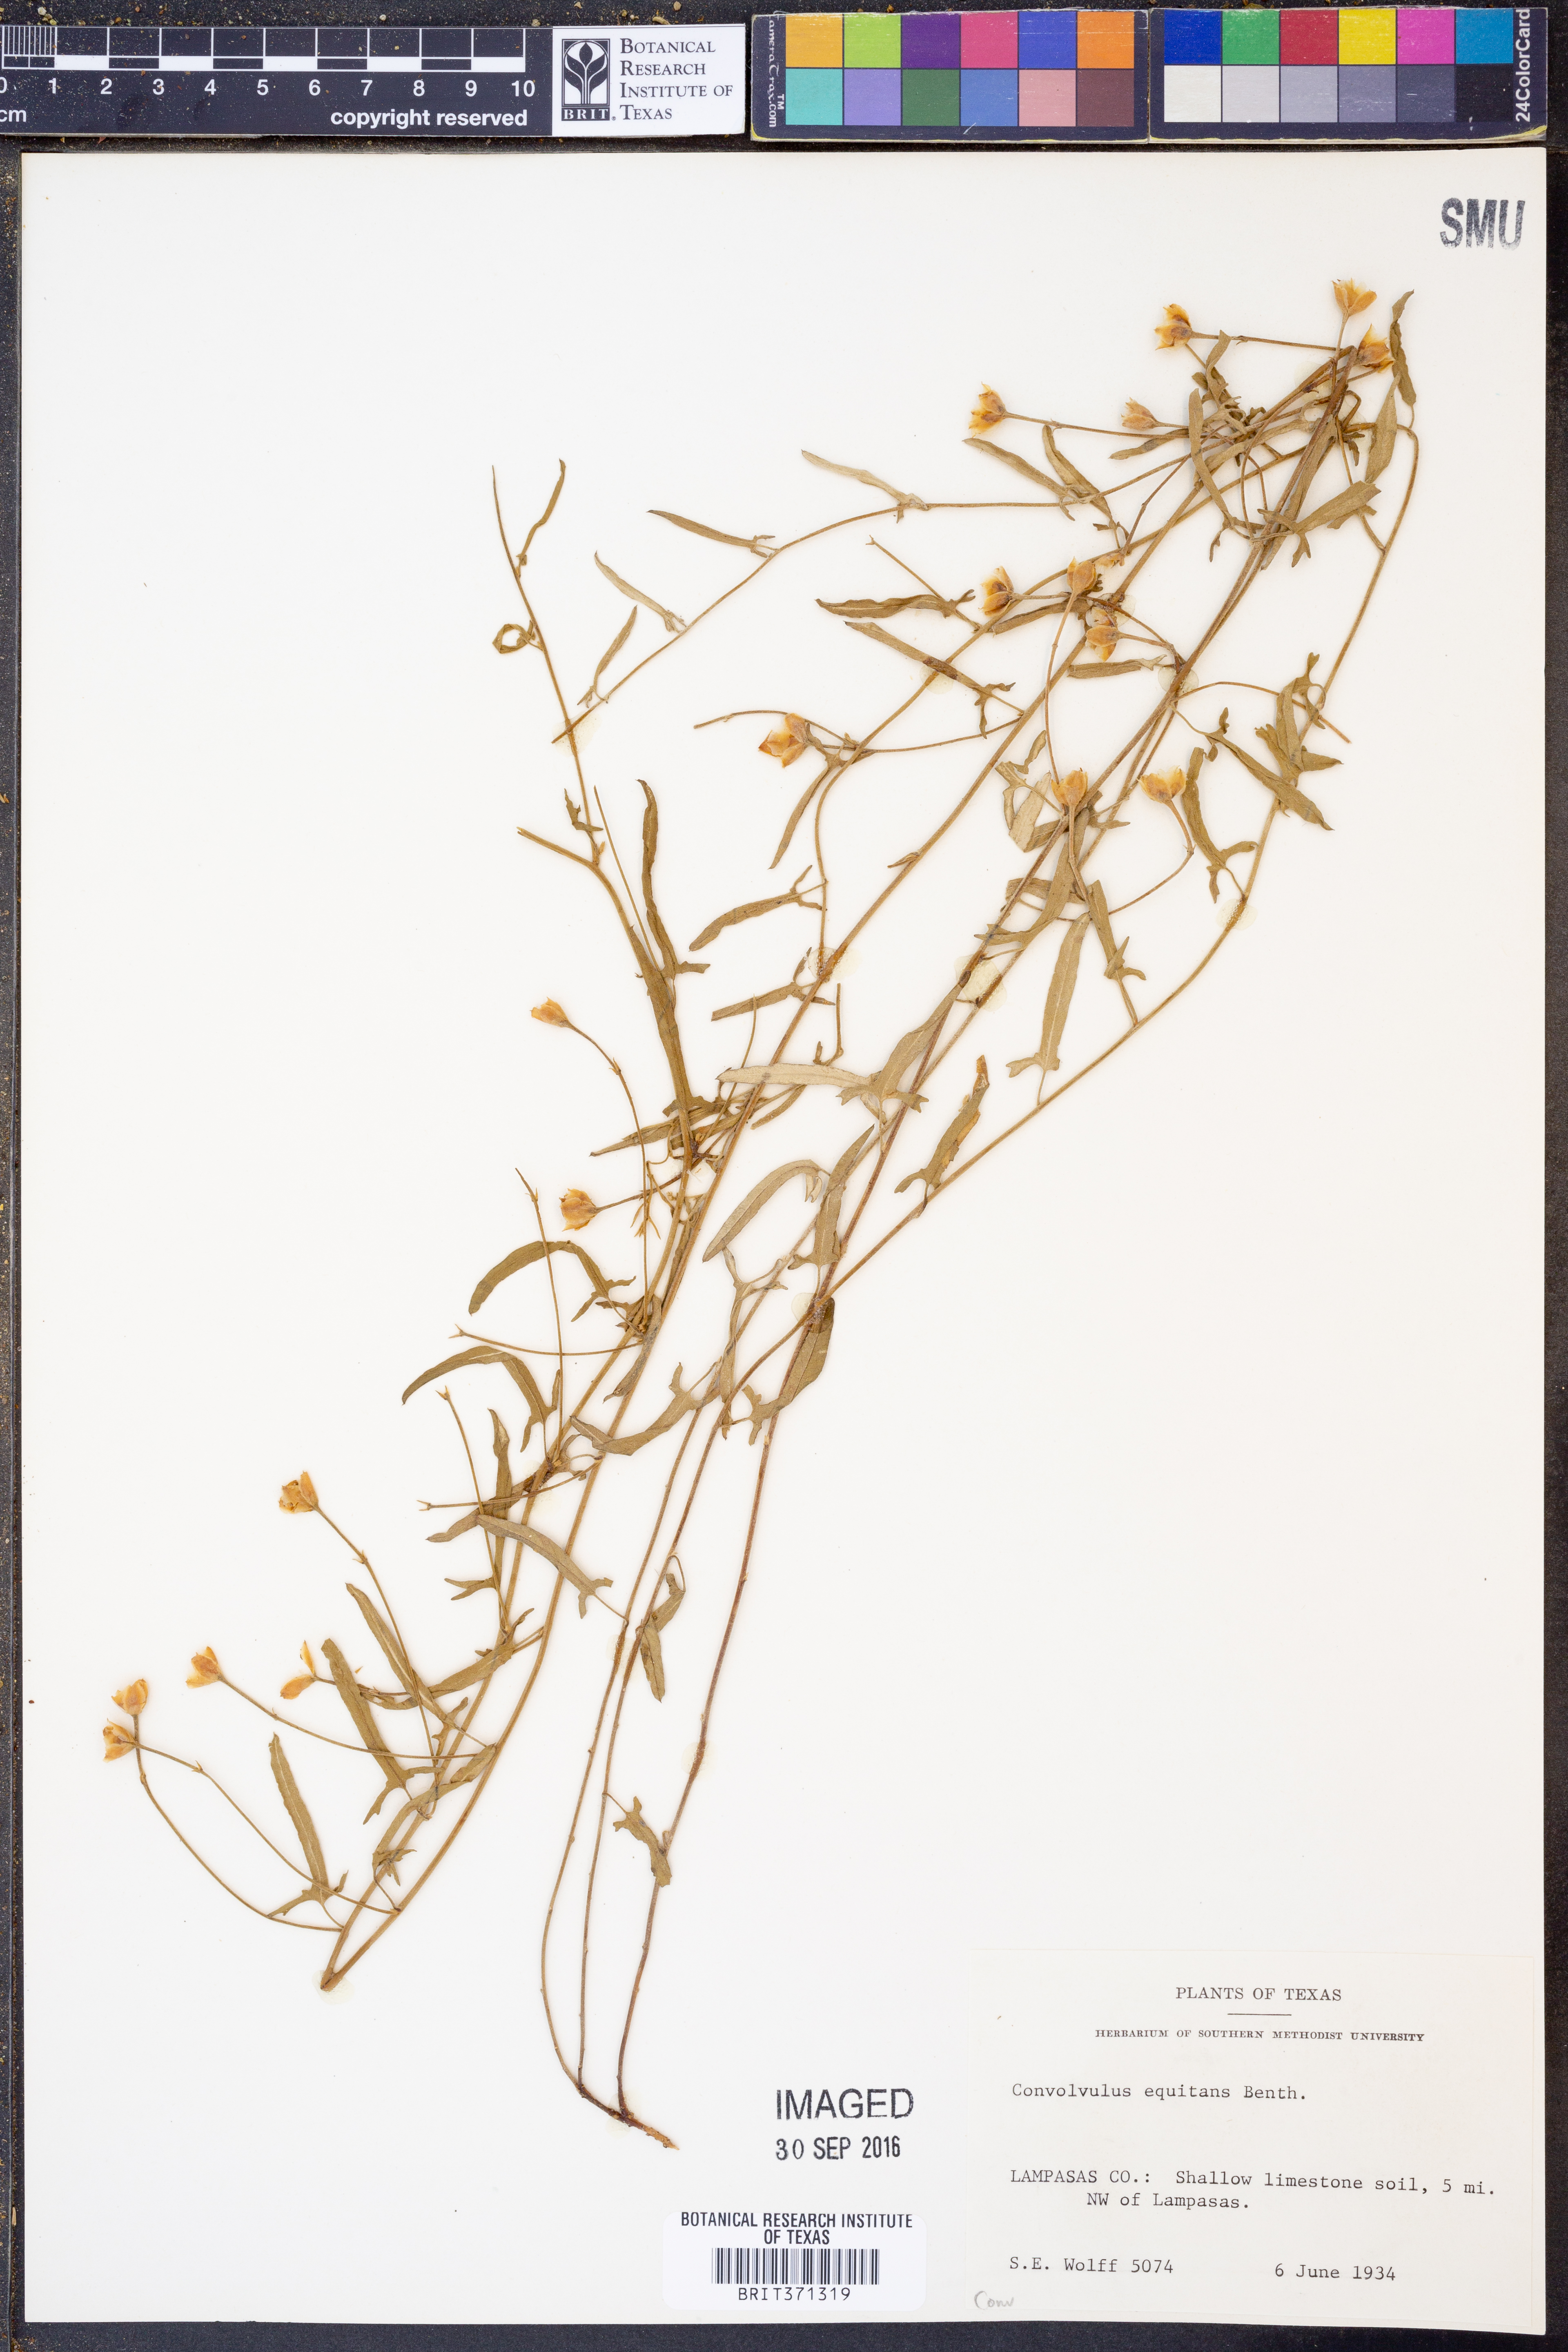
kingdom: Plantae
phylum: Tracheophyta
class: Magnoliopsida
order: Solanales
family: Convolvulaceae
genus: Convolvulus
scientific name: Convolvulus equitans
